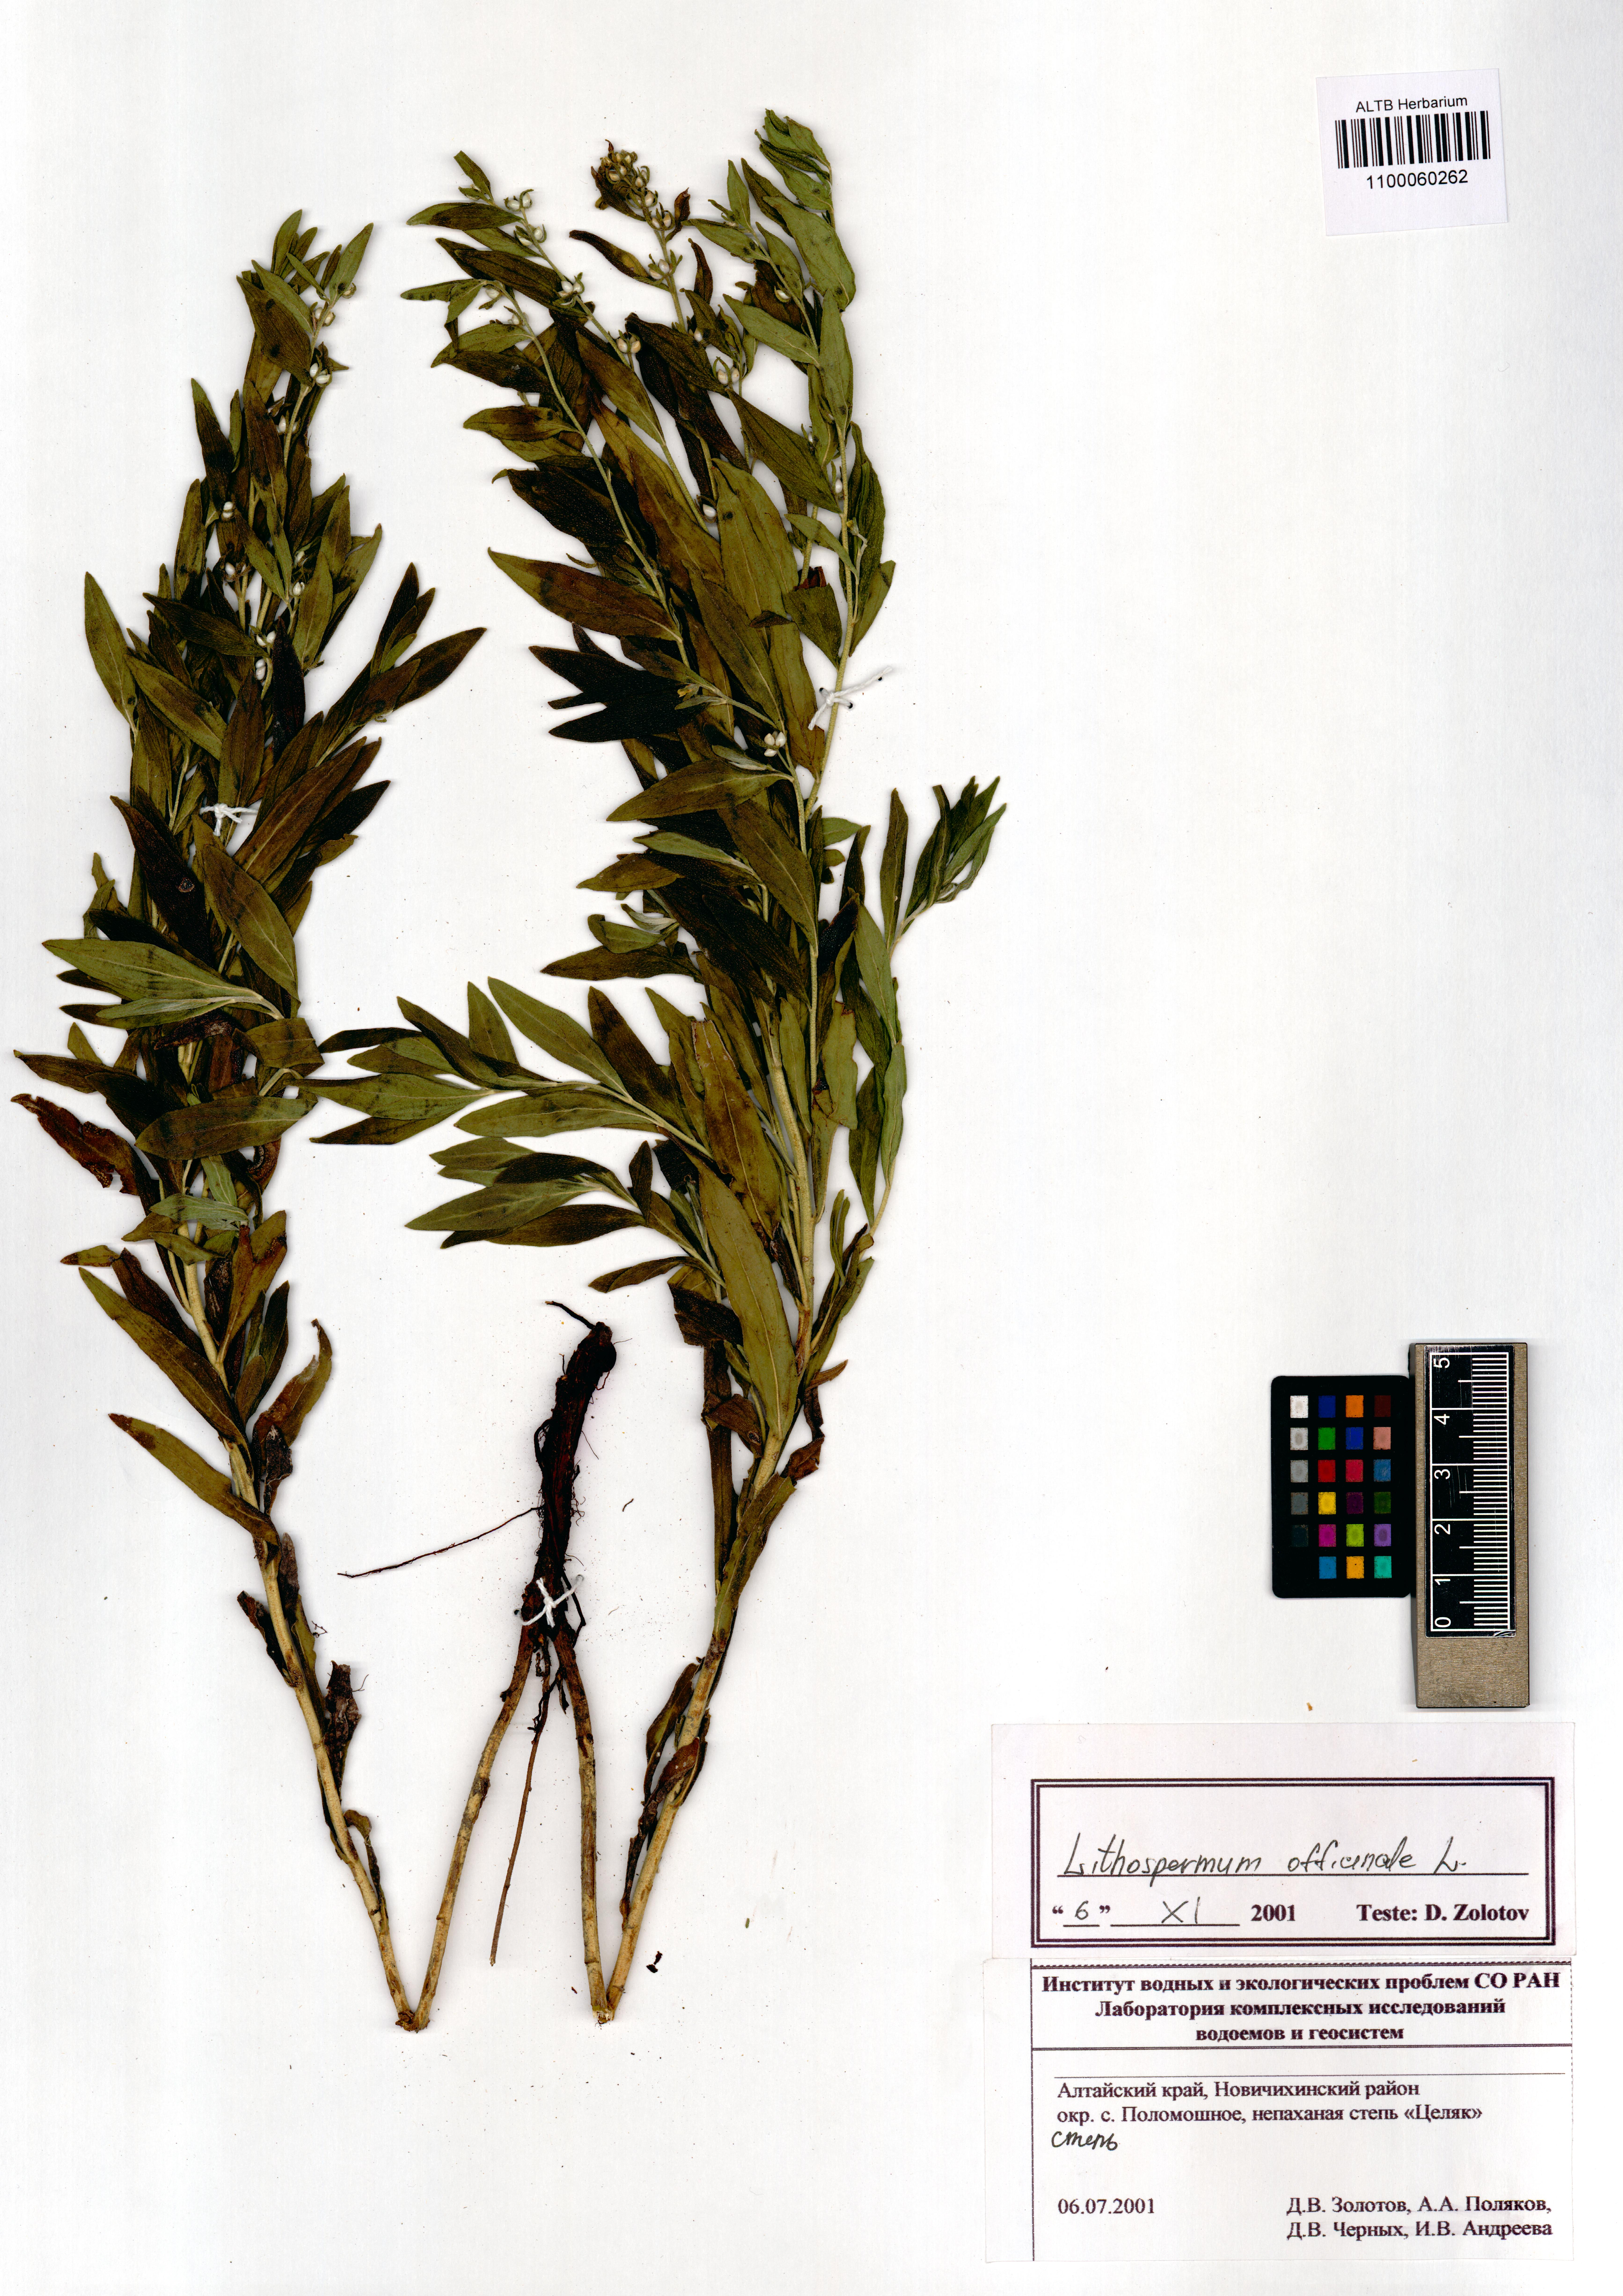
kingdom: Plantae
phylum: Tracheophyta
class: Magnoliopsida
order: Boraginales
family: Boraginaceae
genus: Lithospermum
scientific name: Lithospermum officinale
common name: Common gromwell
